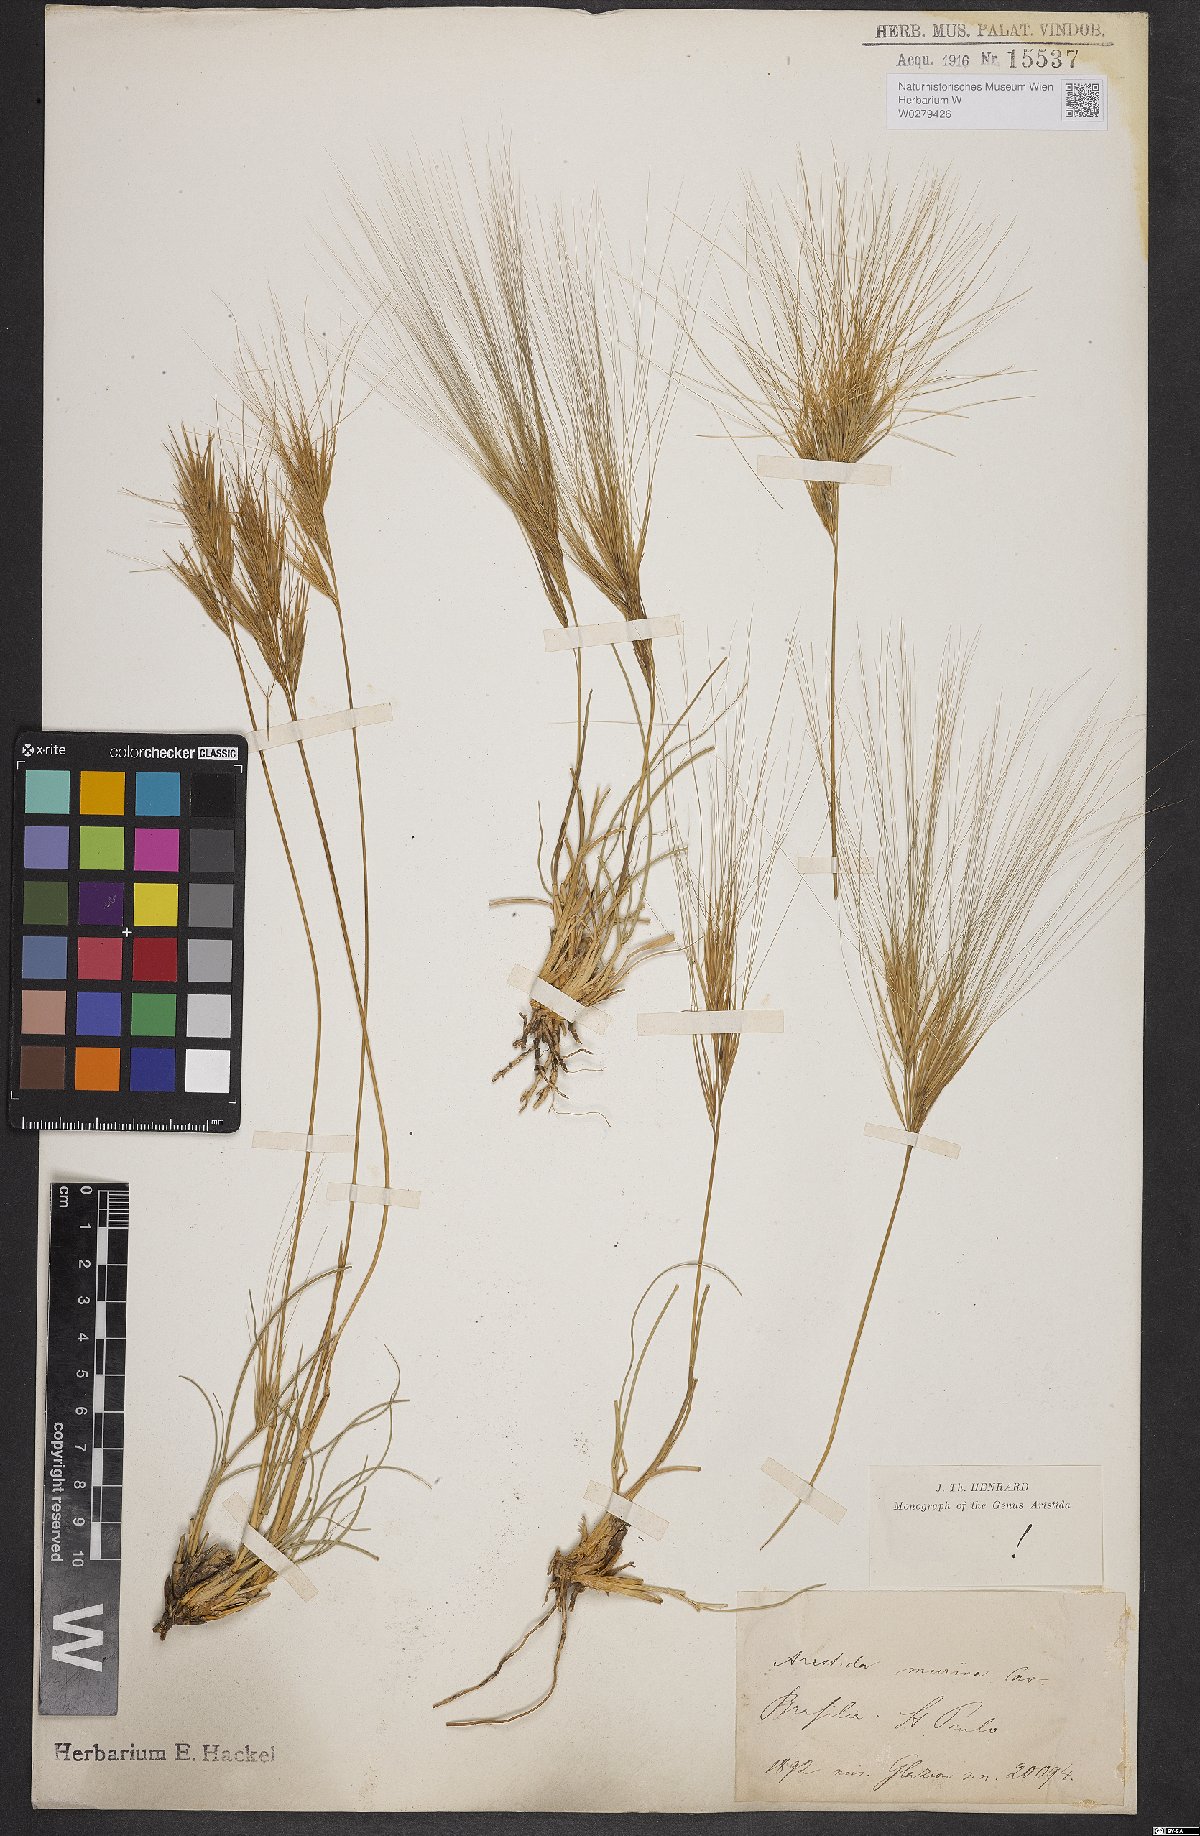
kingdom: Plantae
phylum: Tracheophyta
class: Liliopsida
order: Poales
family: Poaceae
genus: Aristida
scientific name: Aristida murina
